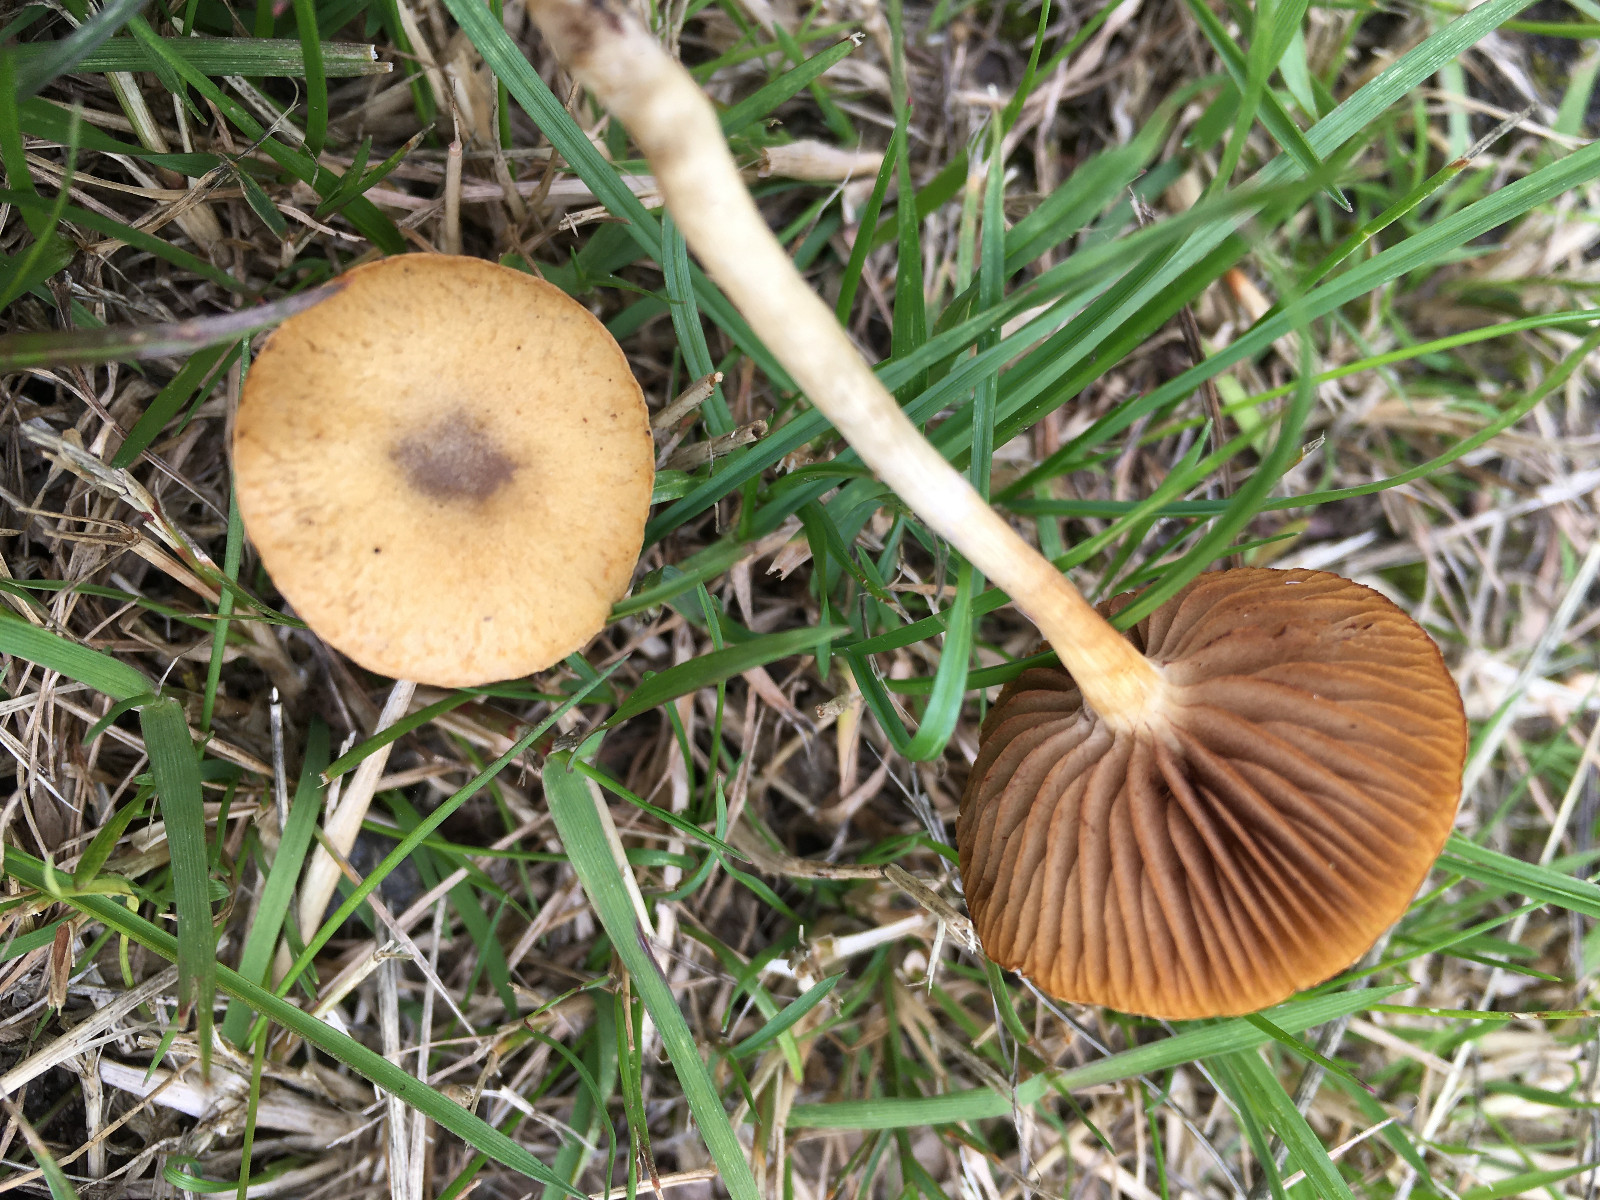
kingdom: Fungi
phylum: Basidiomycota
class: Agaricomycetes
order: Agaricales
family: Strophariaceae
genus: Agrocybe
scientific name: Agrocybe pediades
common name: almindelig agerhat
